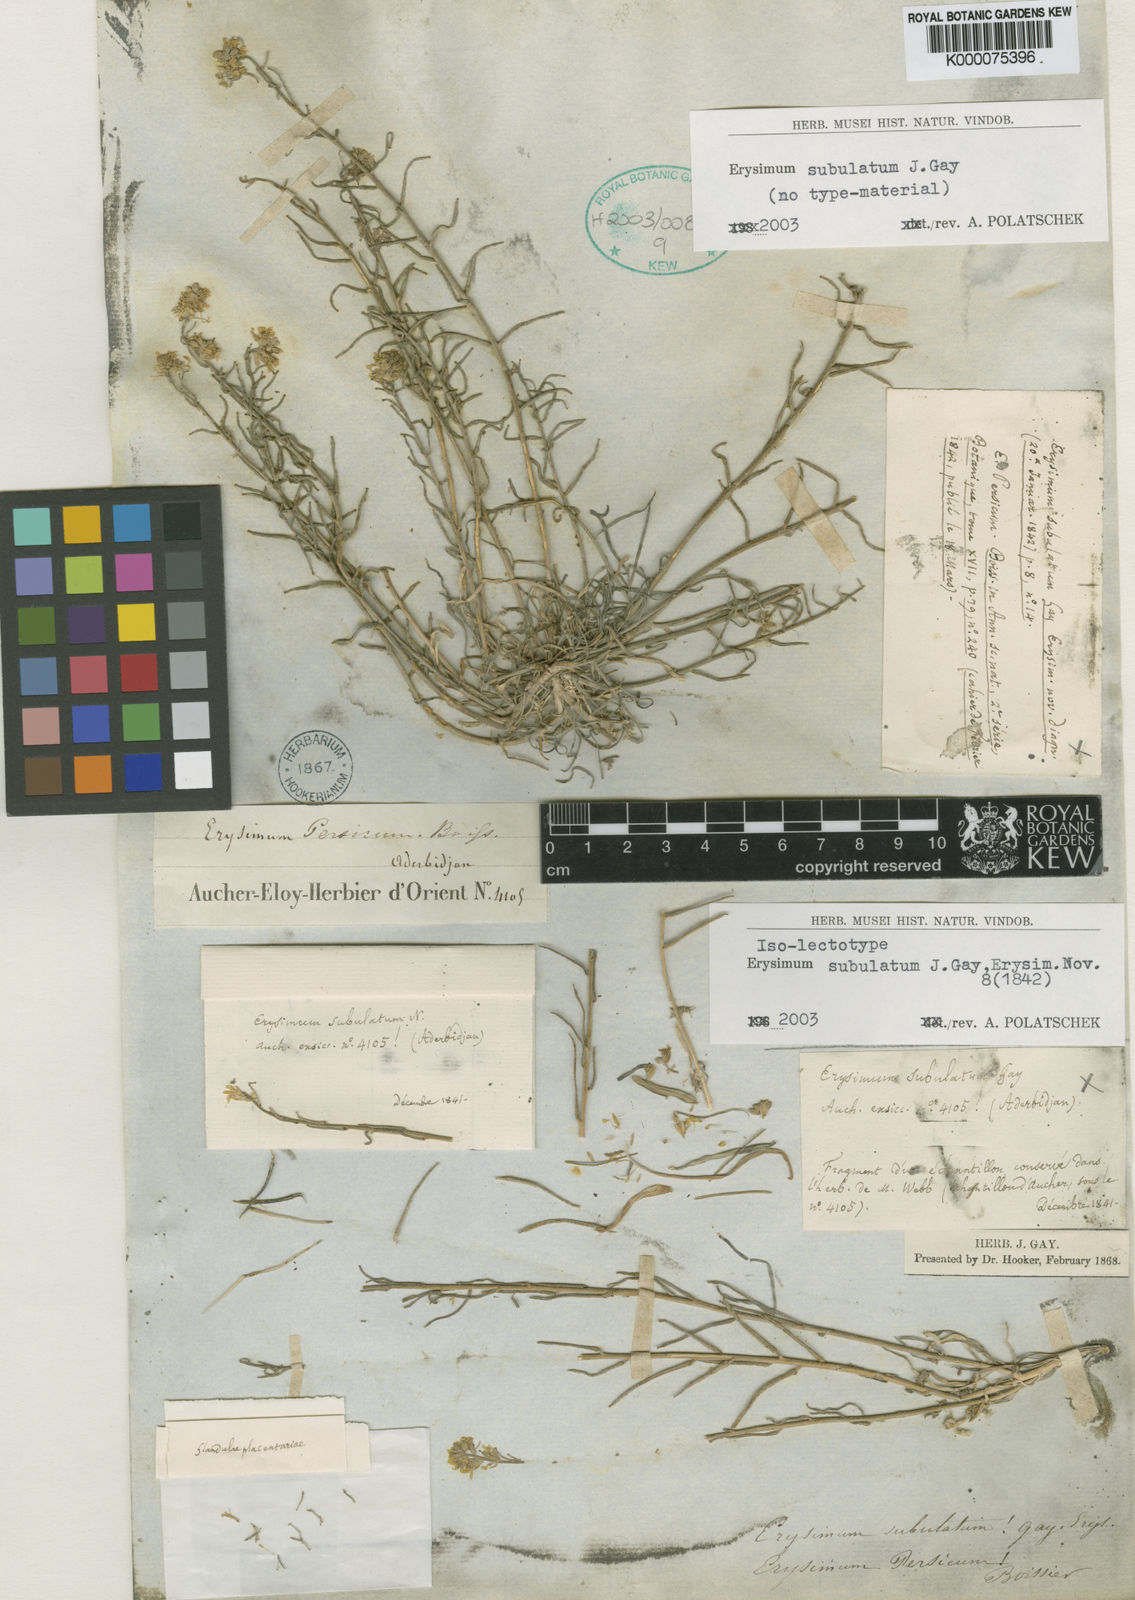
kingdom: Plantae
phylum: Tracheophyta
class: Magnoliopsida
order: Brassicales
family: Brassicaceae
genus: Erysimum
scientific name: Erysimum subulatum
